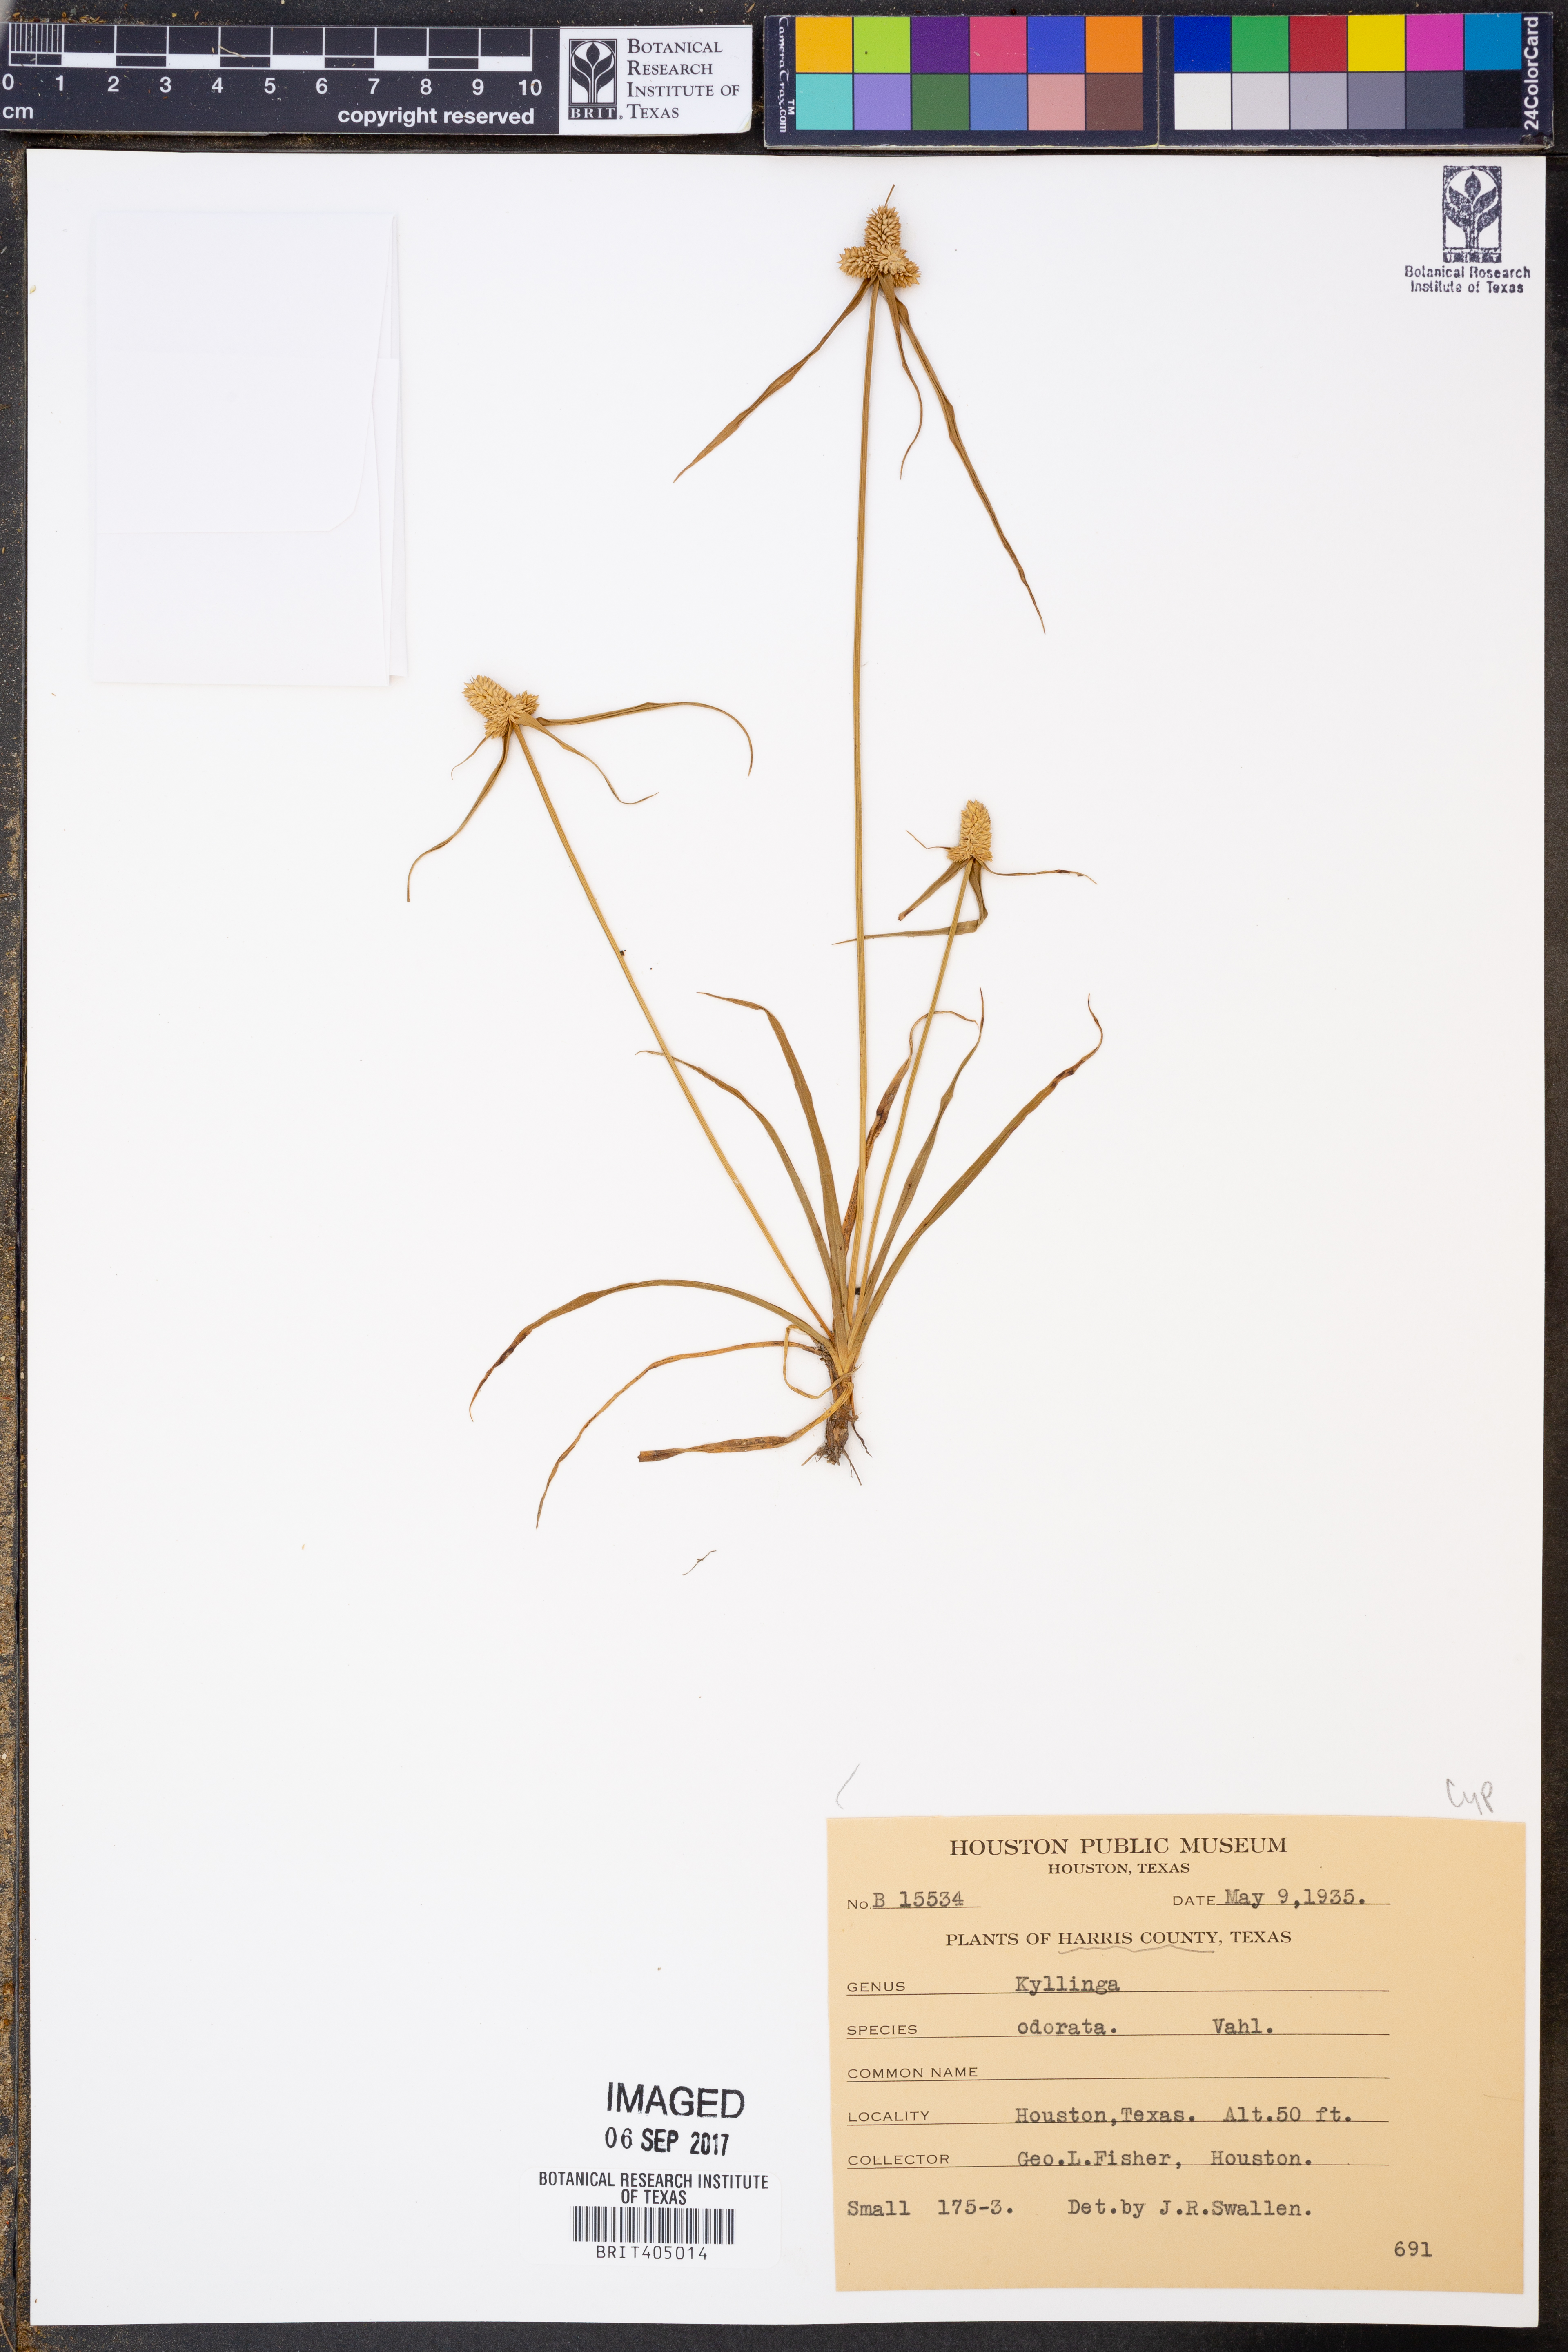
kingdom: Plantae
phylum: Tracheophyta
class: Liliopsida
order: Poales
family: Cyperaceae
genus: Cyperus
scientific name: Cyperus sesquiflorus
